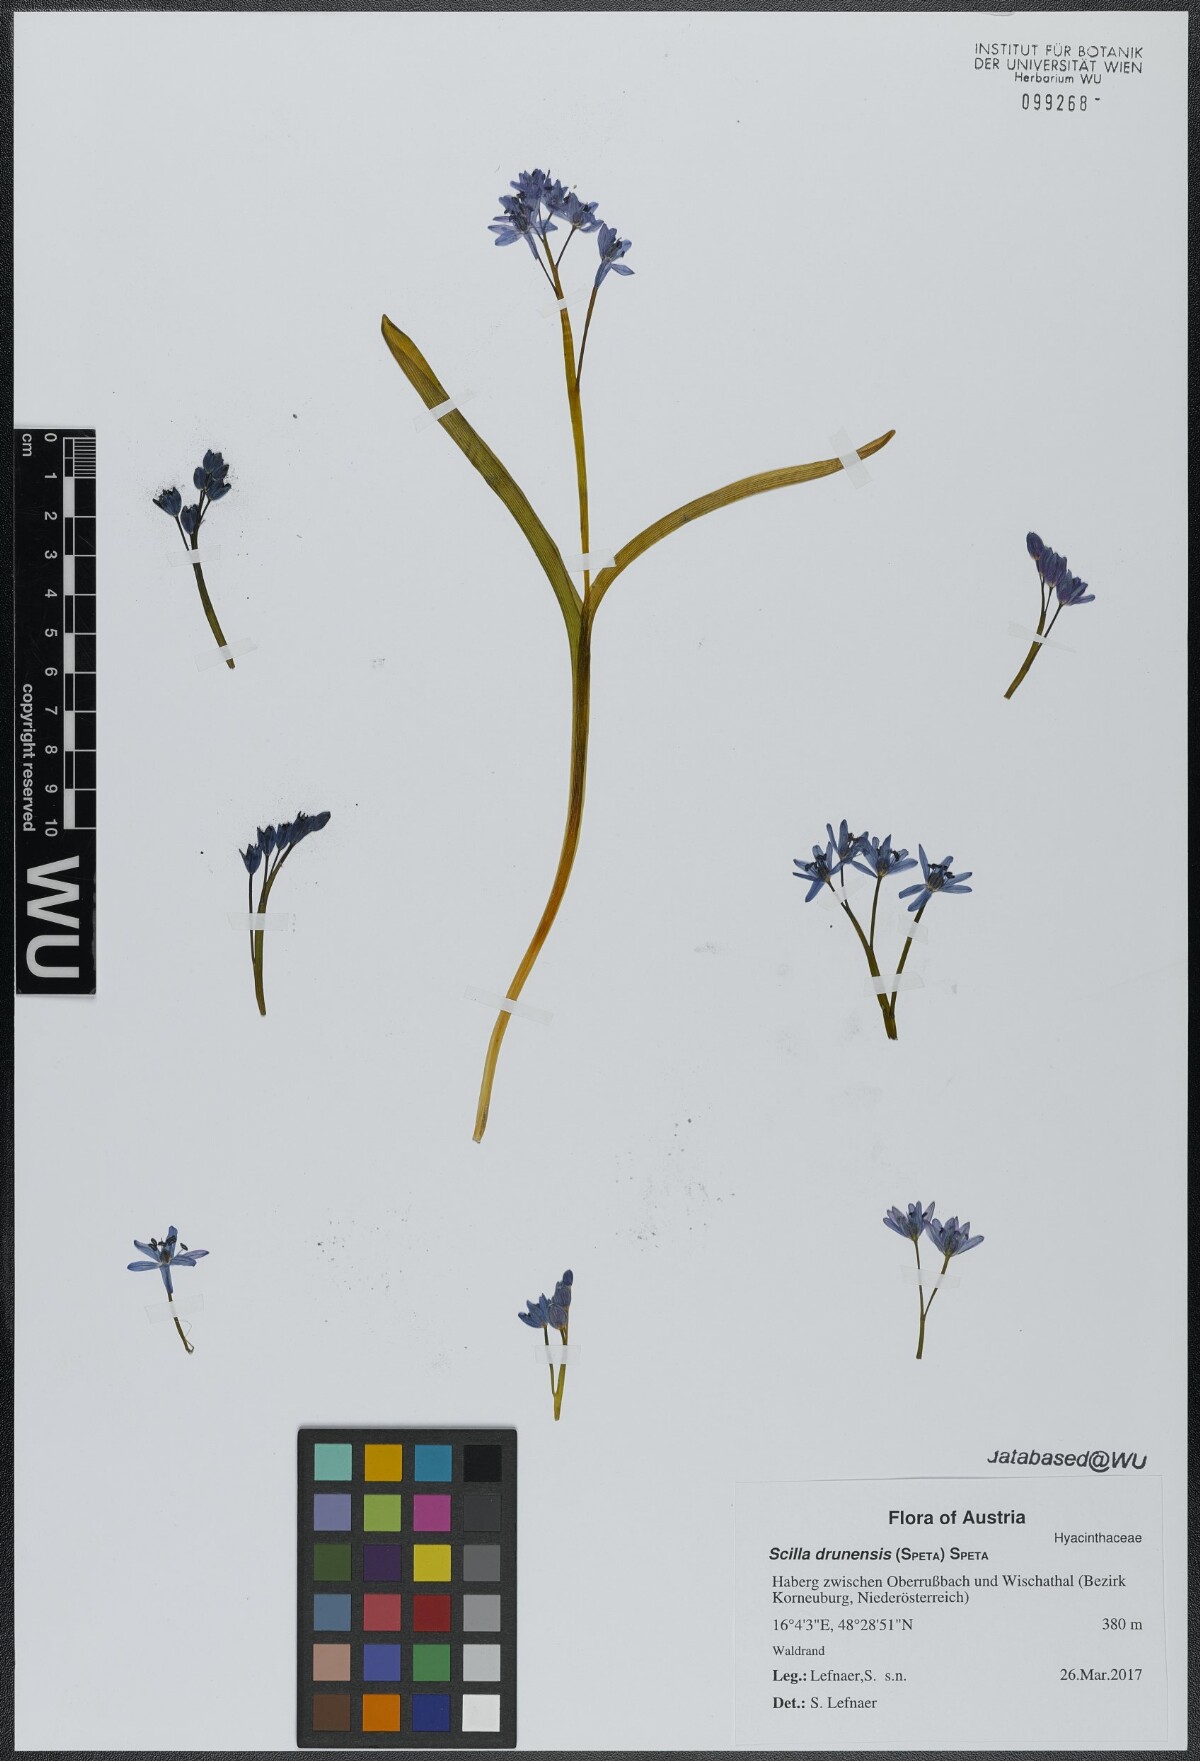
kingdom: Plantae
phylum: Tracheophyta
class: Liliopsida
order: Asparagales
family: Asparagaceae
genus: Scilla
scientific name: Scilla bifolia
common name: Alpine squill
